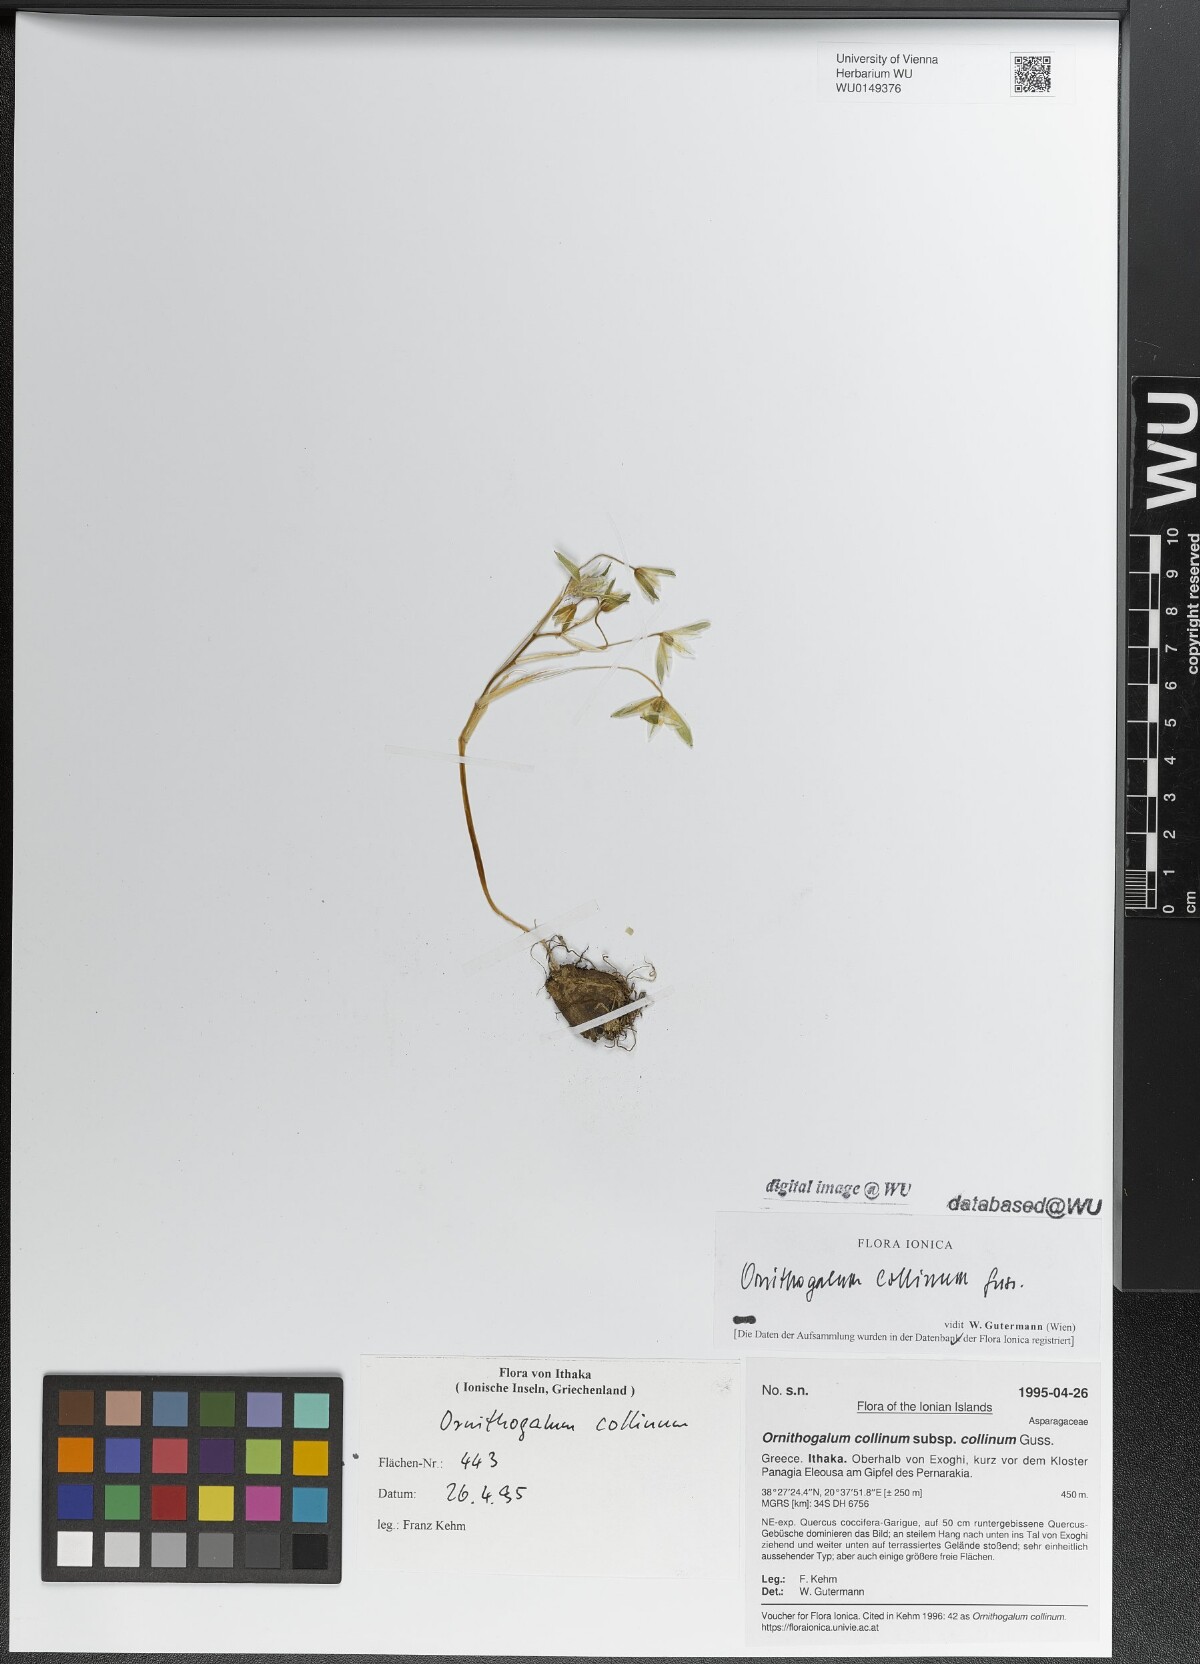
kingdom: Plantae
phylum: Tracheophyta
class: Liliopsida
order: Asparagales
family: Asparagaceae
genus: Ornithogalum
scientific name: Ornithogalum collinum
